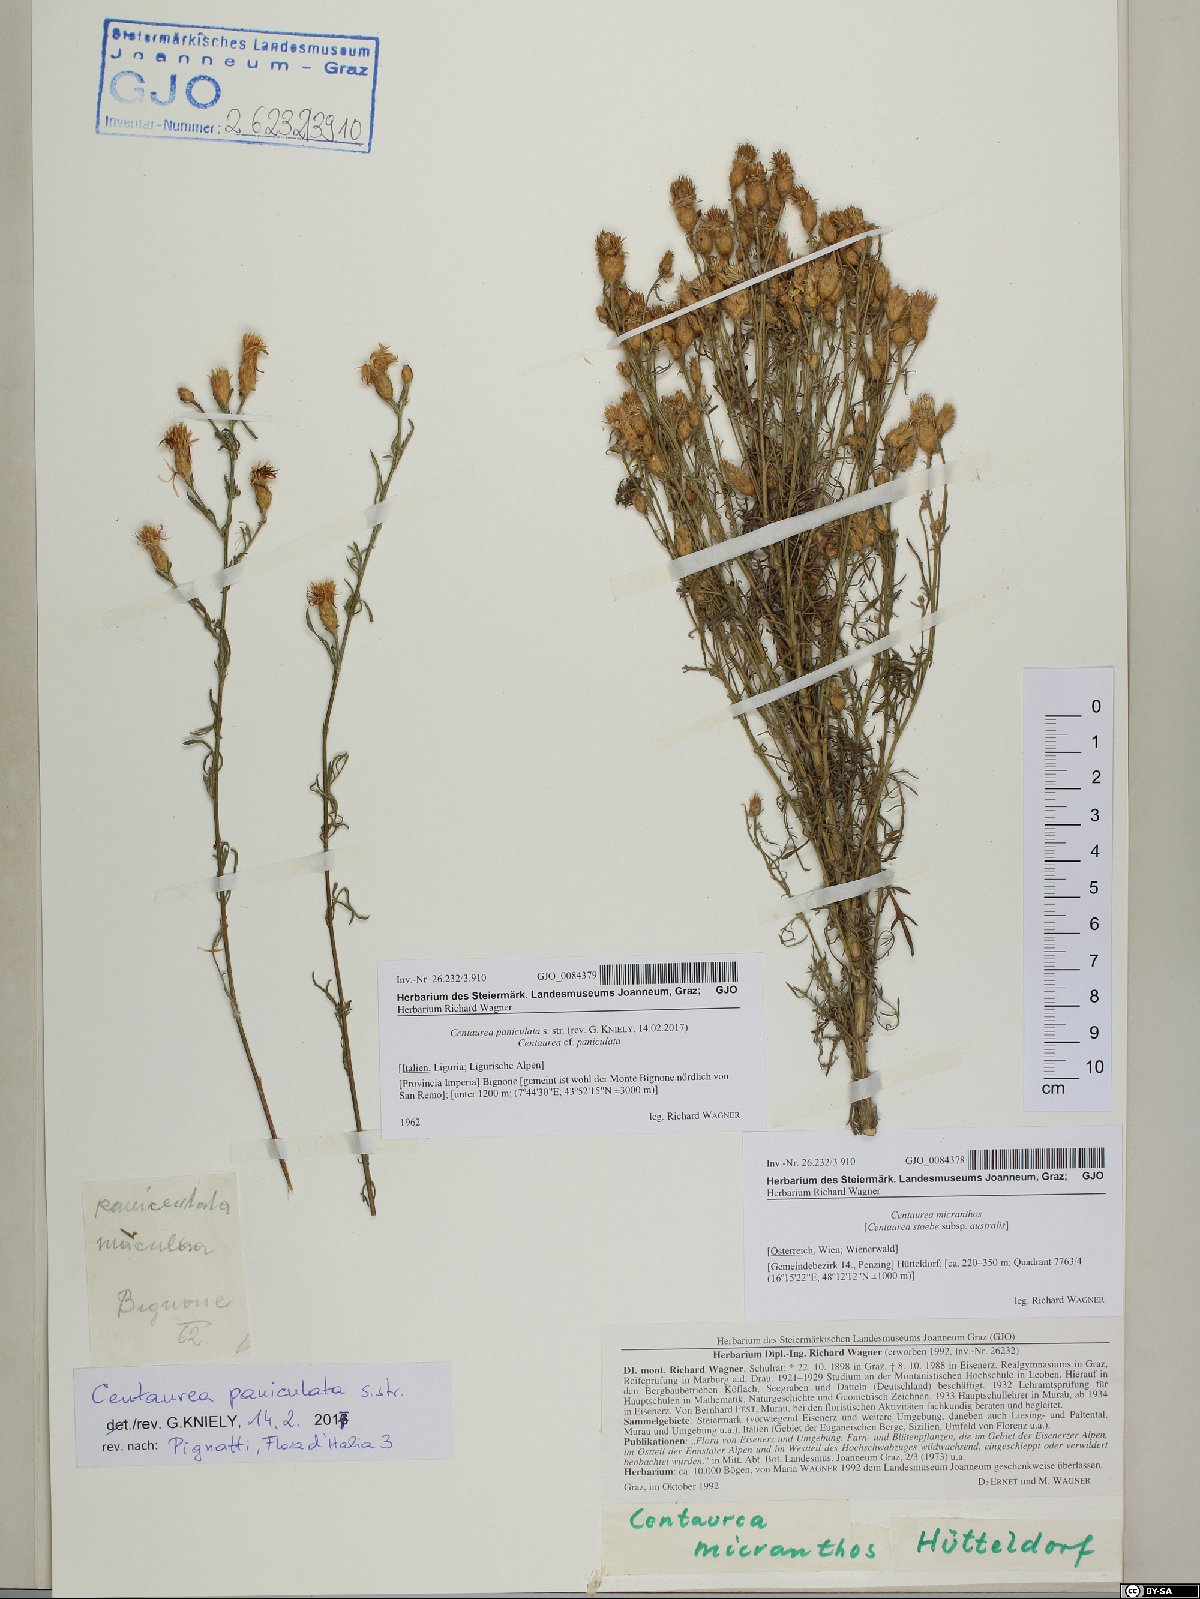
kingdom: Plantae
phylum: Tracheophyta
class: Magnoliopsida
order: Asterales
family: Asteraceae
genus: Centaurea
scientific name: Centaurea paniculata
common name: Jersey knapweed
